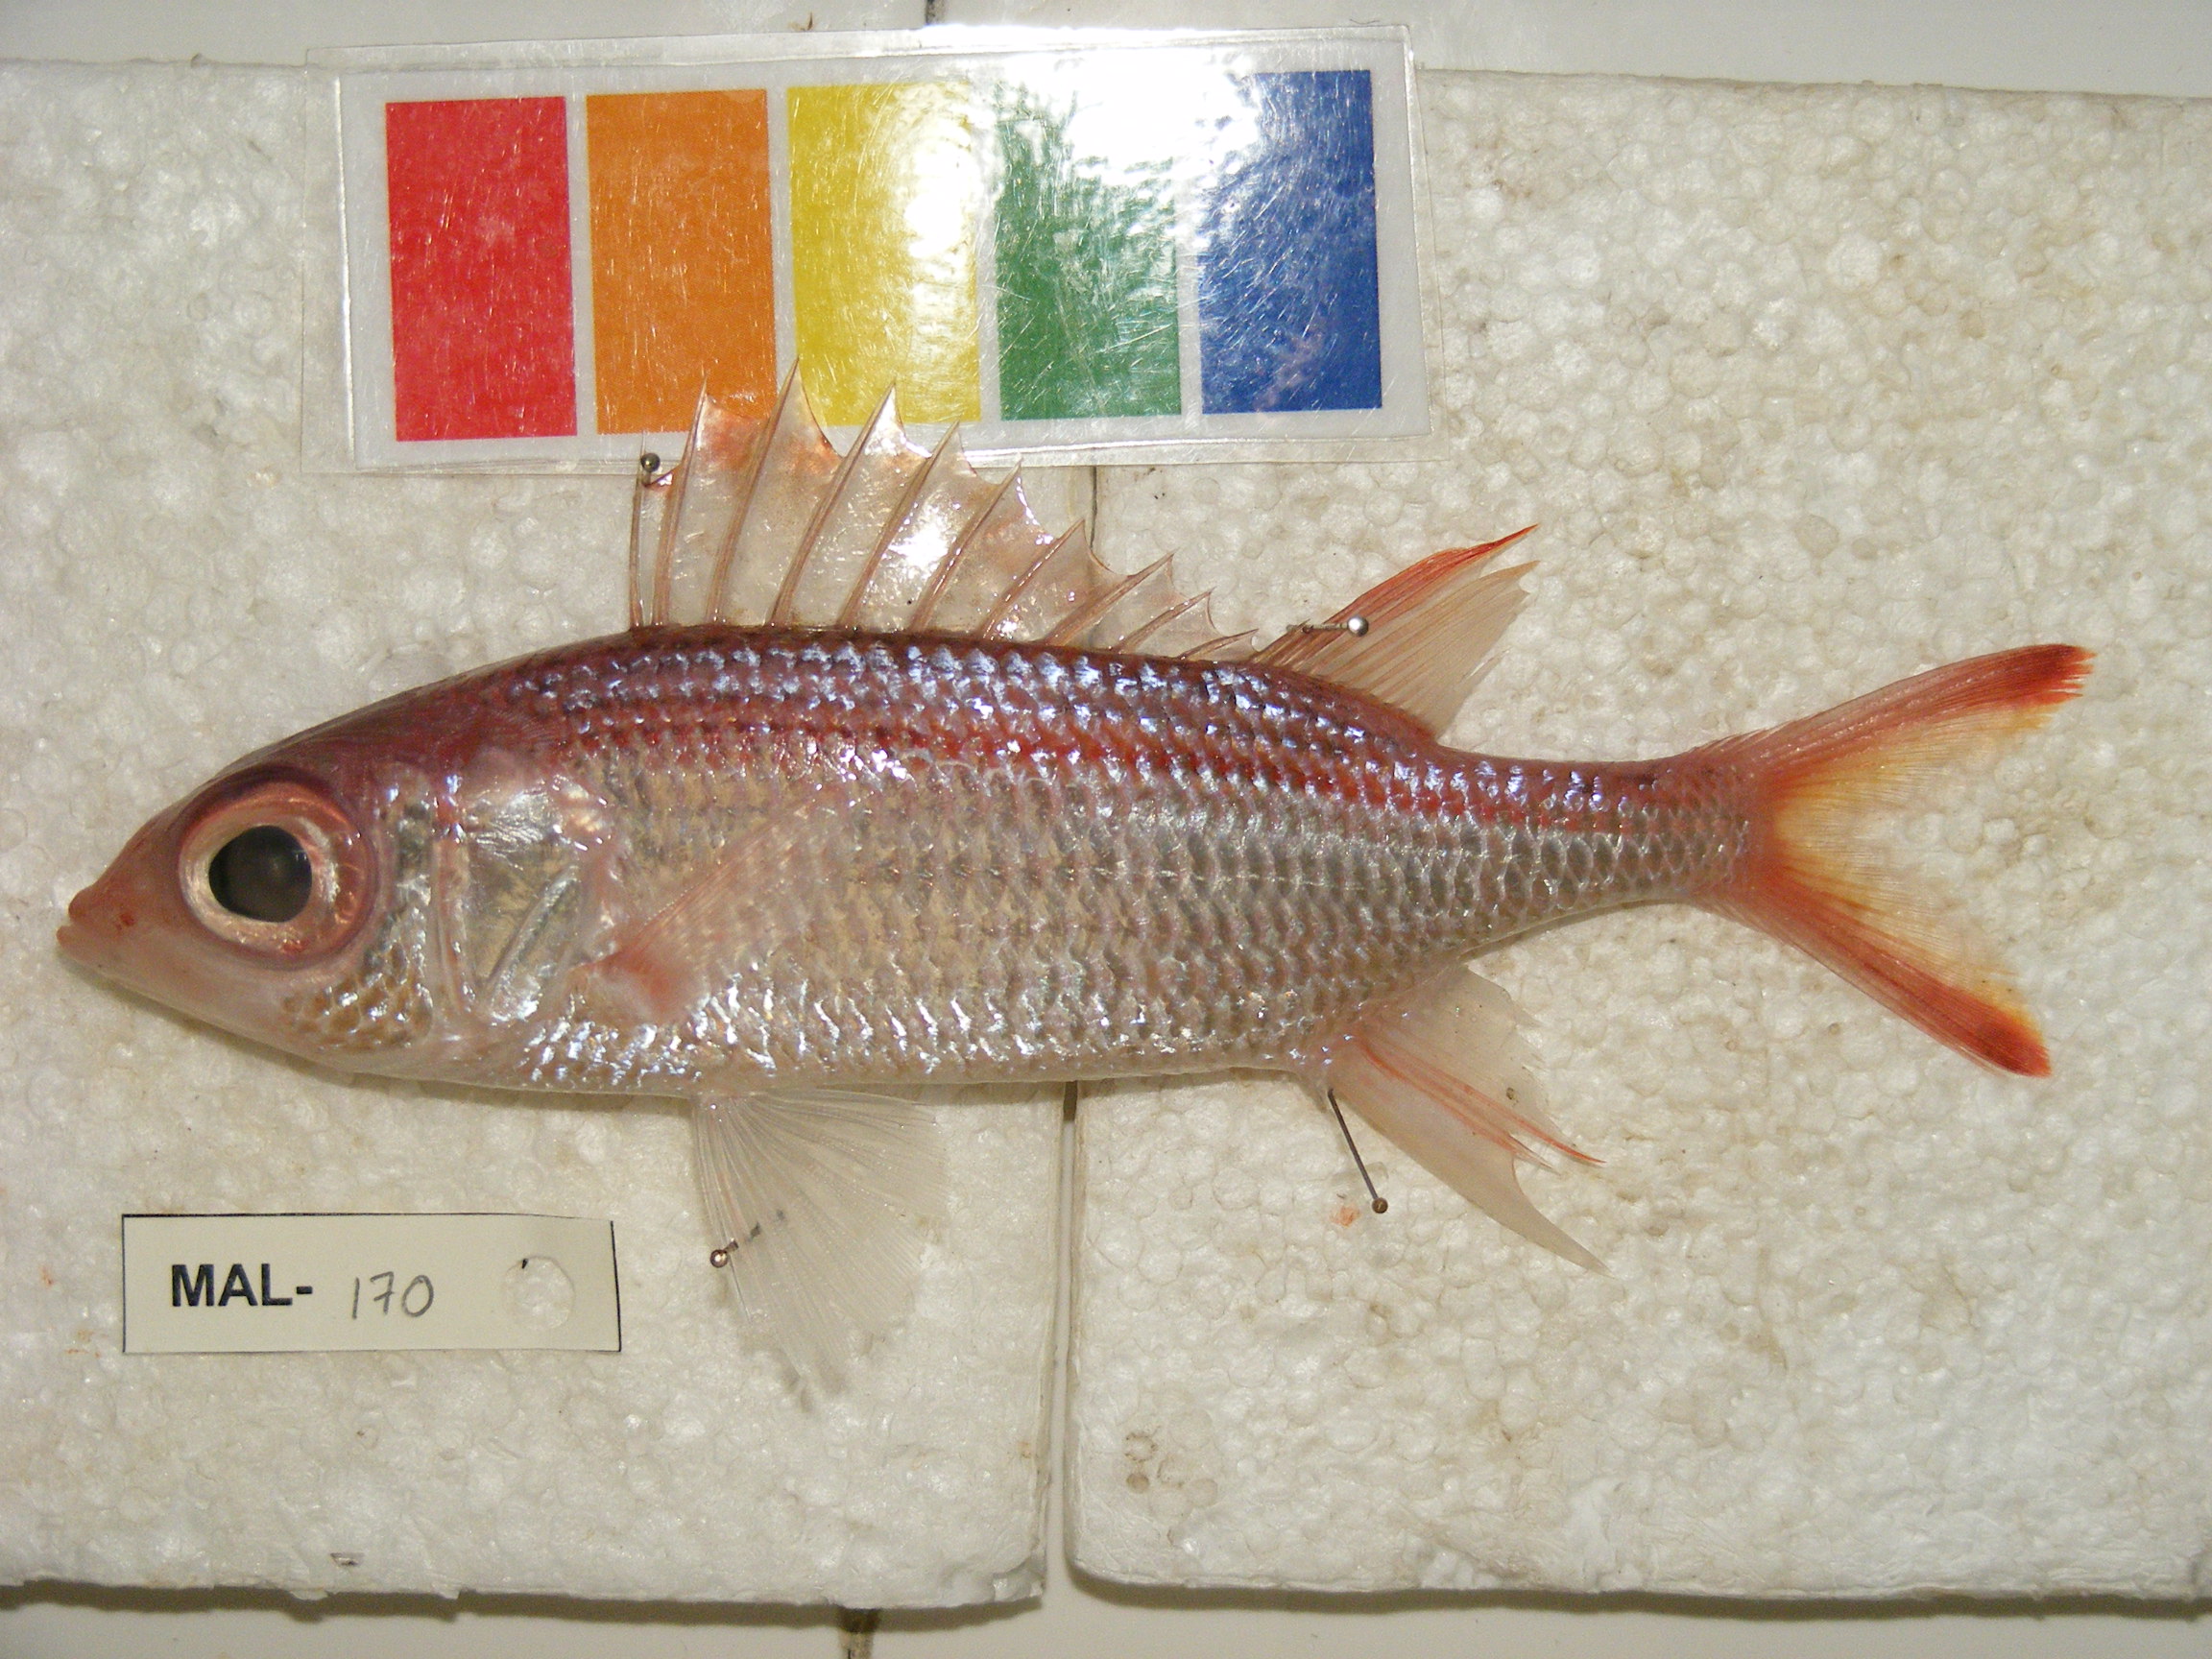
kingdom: Animalia
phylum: Chordata
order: Beryciformes
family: Holocentridae
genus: Neoniphon
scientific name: Neoniphon argenteus
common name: Clearfin squirrelfish
